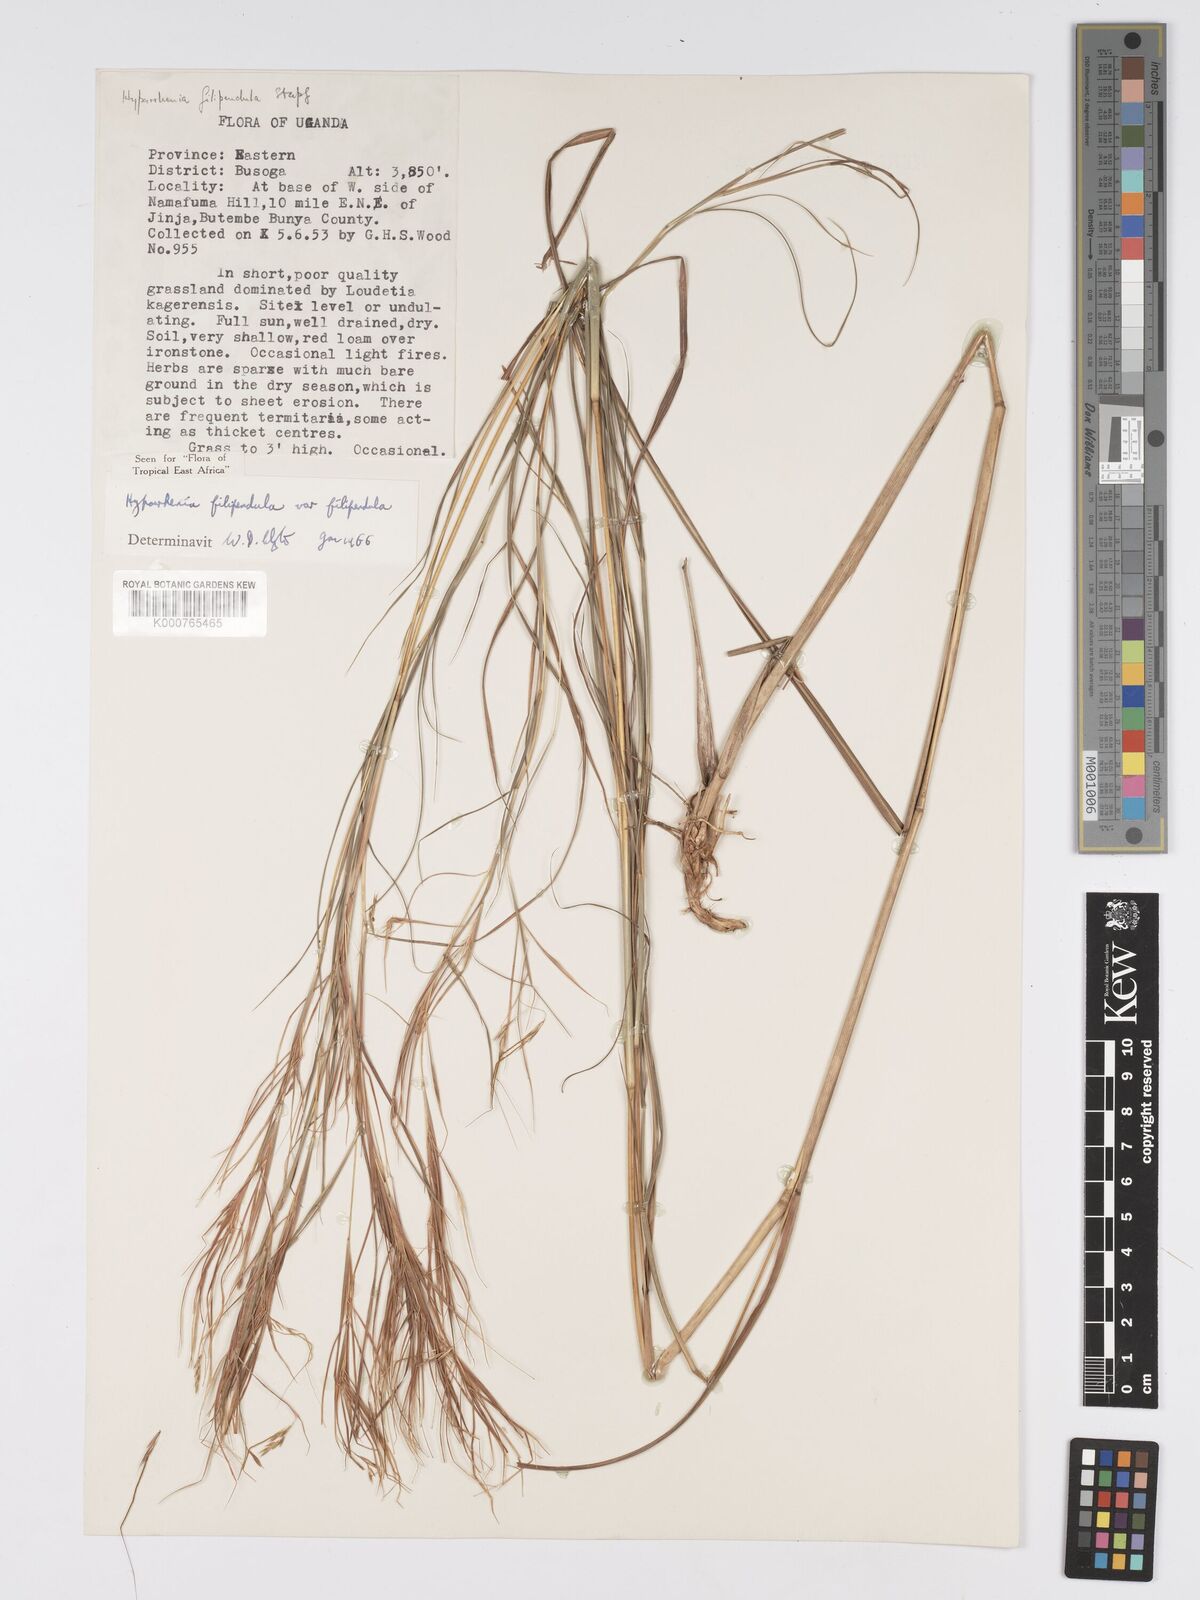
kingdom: Plantae
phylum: Tracheophyta
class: Liliopsida
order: Poales
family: Poaceae
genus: Hyparrhenia
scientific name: Hyparrhenia filipendula
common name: Tambookie grass
